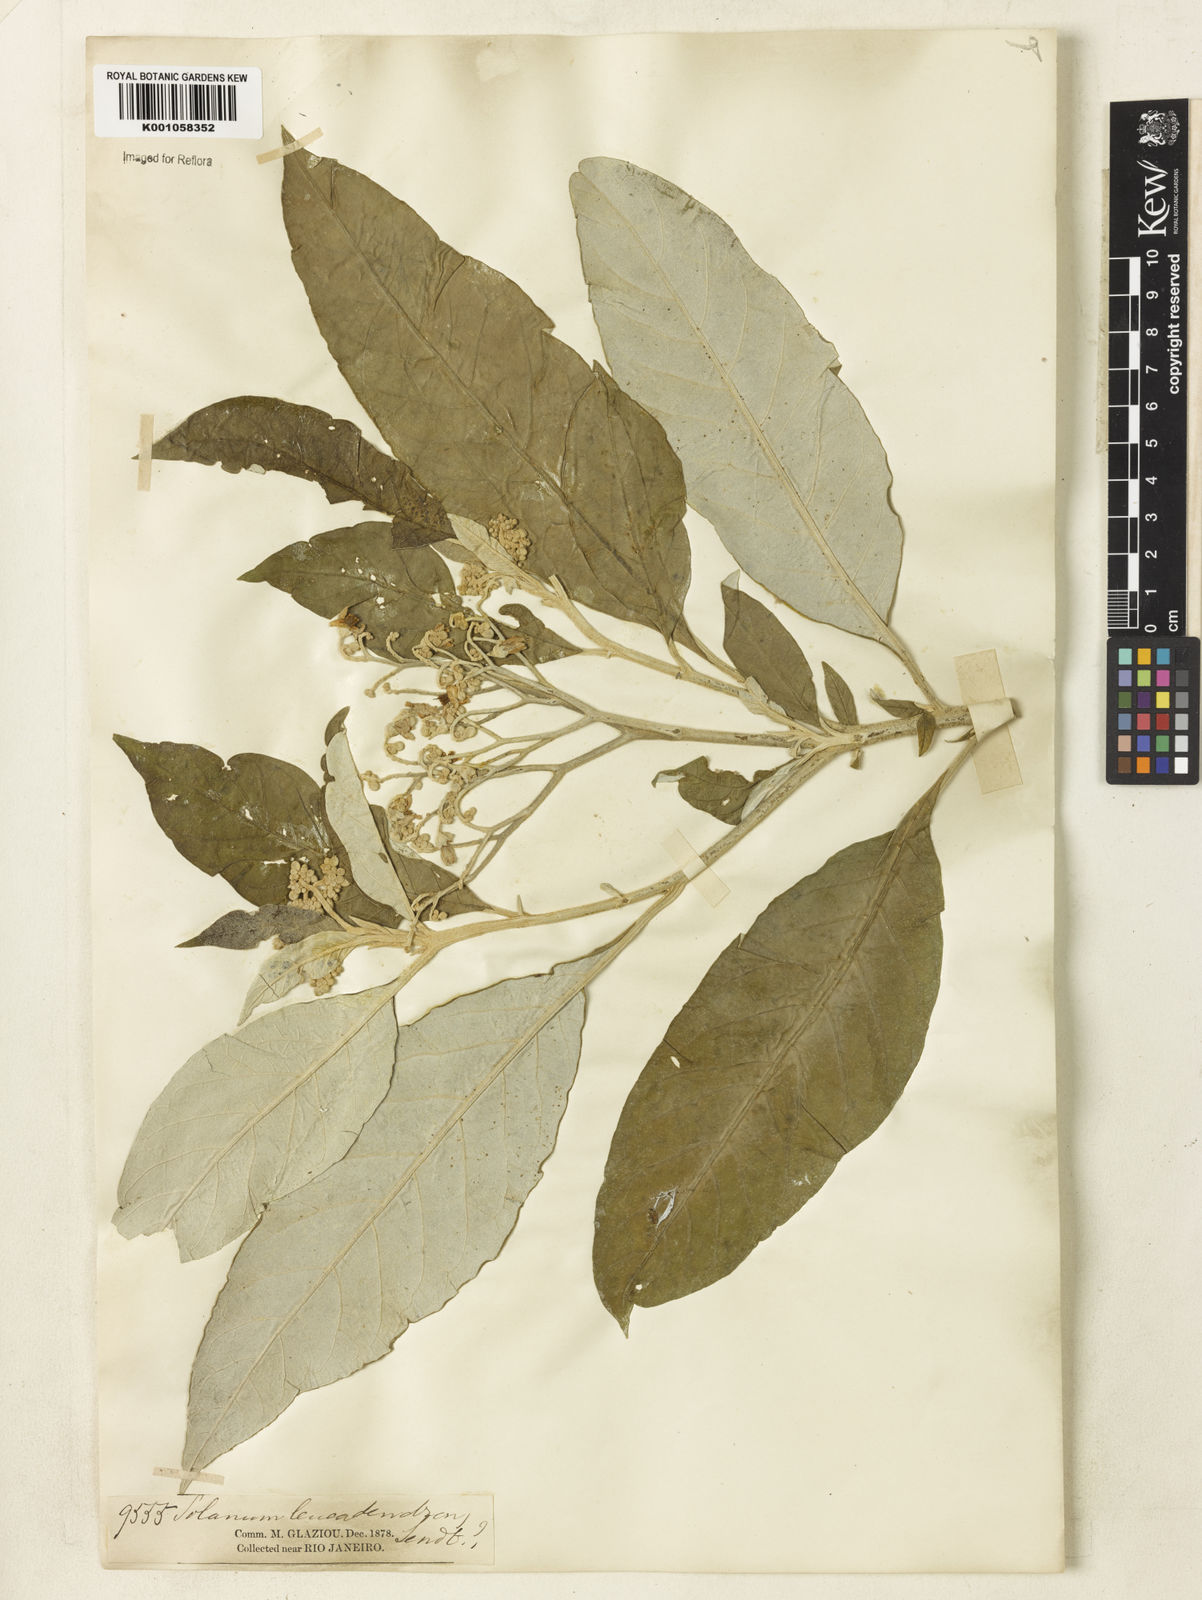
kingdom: Plantae
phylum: Tracheophyta
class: Magnoliopsida
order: Solanales
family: Solanaceae
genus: Solanum
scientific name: Solanum leucodendron
